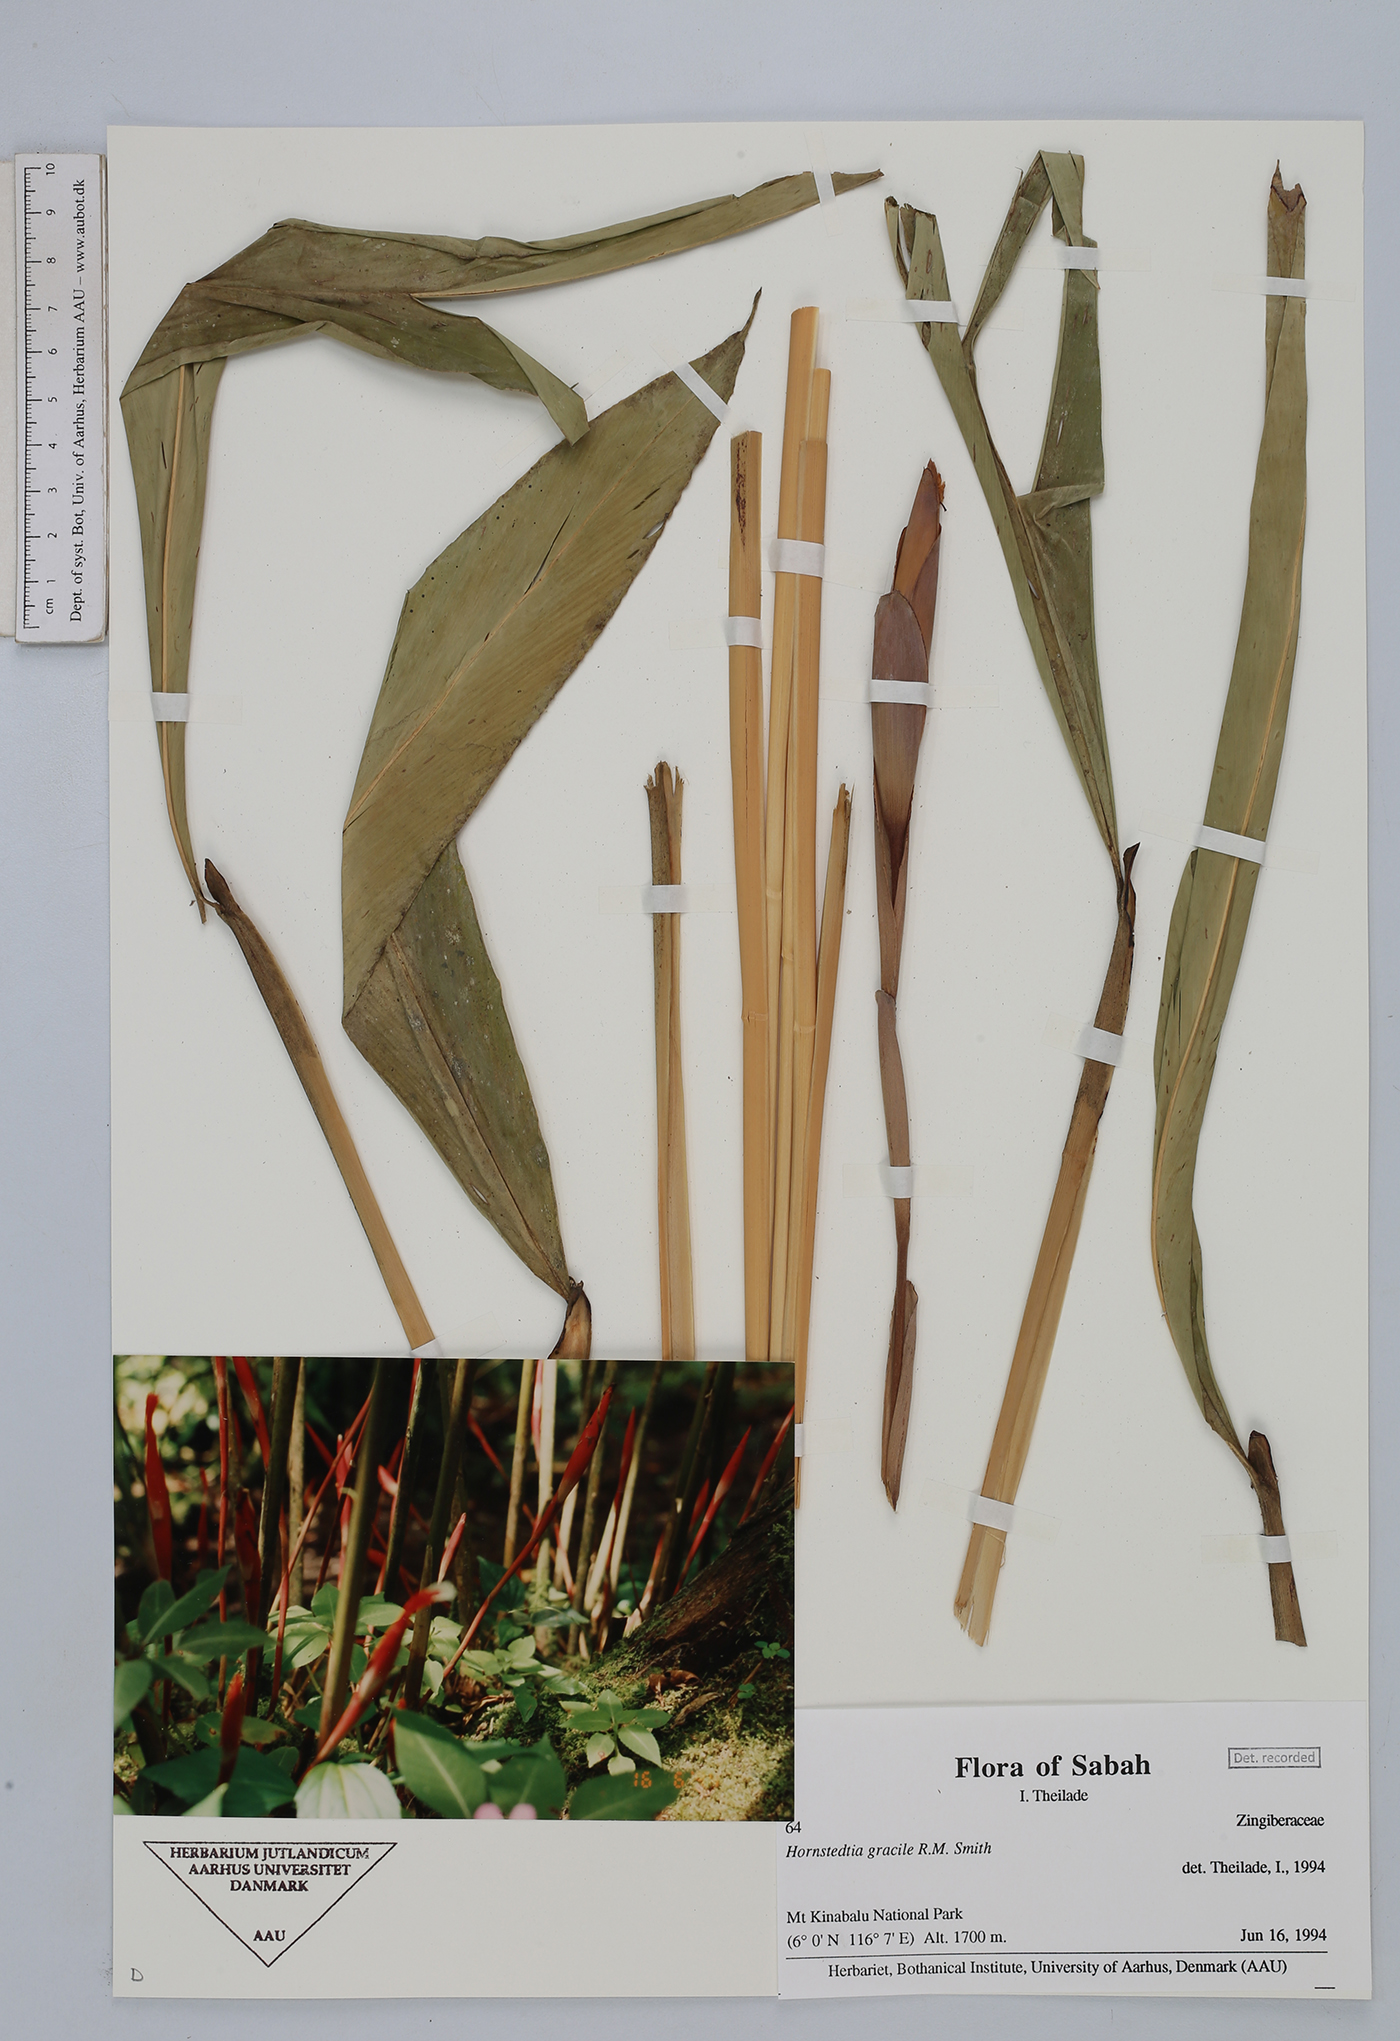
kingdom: Plantae
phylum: Tracheophyta
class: Liliopsida
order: Zingiberales
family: Zingiberaceae
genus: Hornstedtia
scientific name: Hornstedtia gracilis
